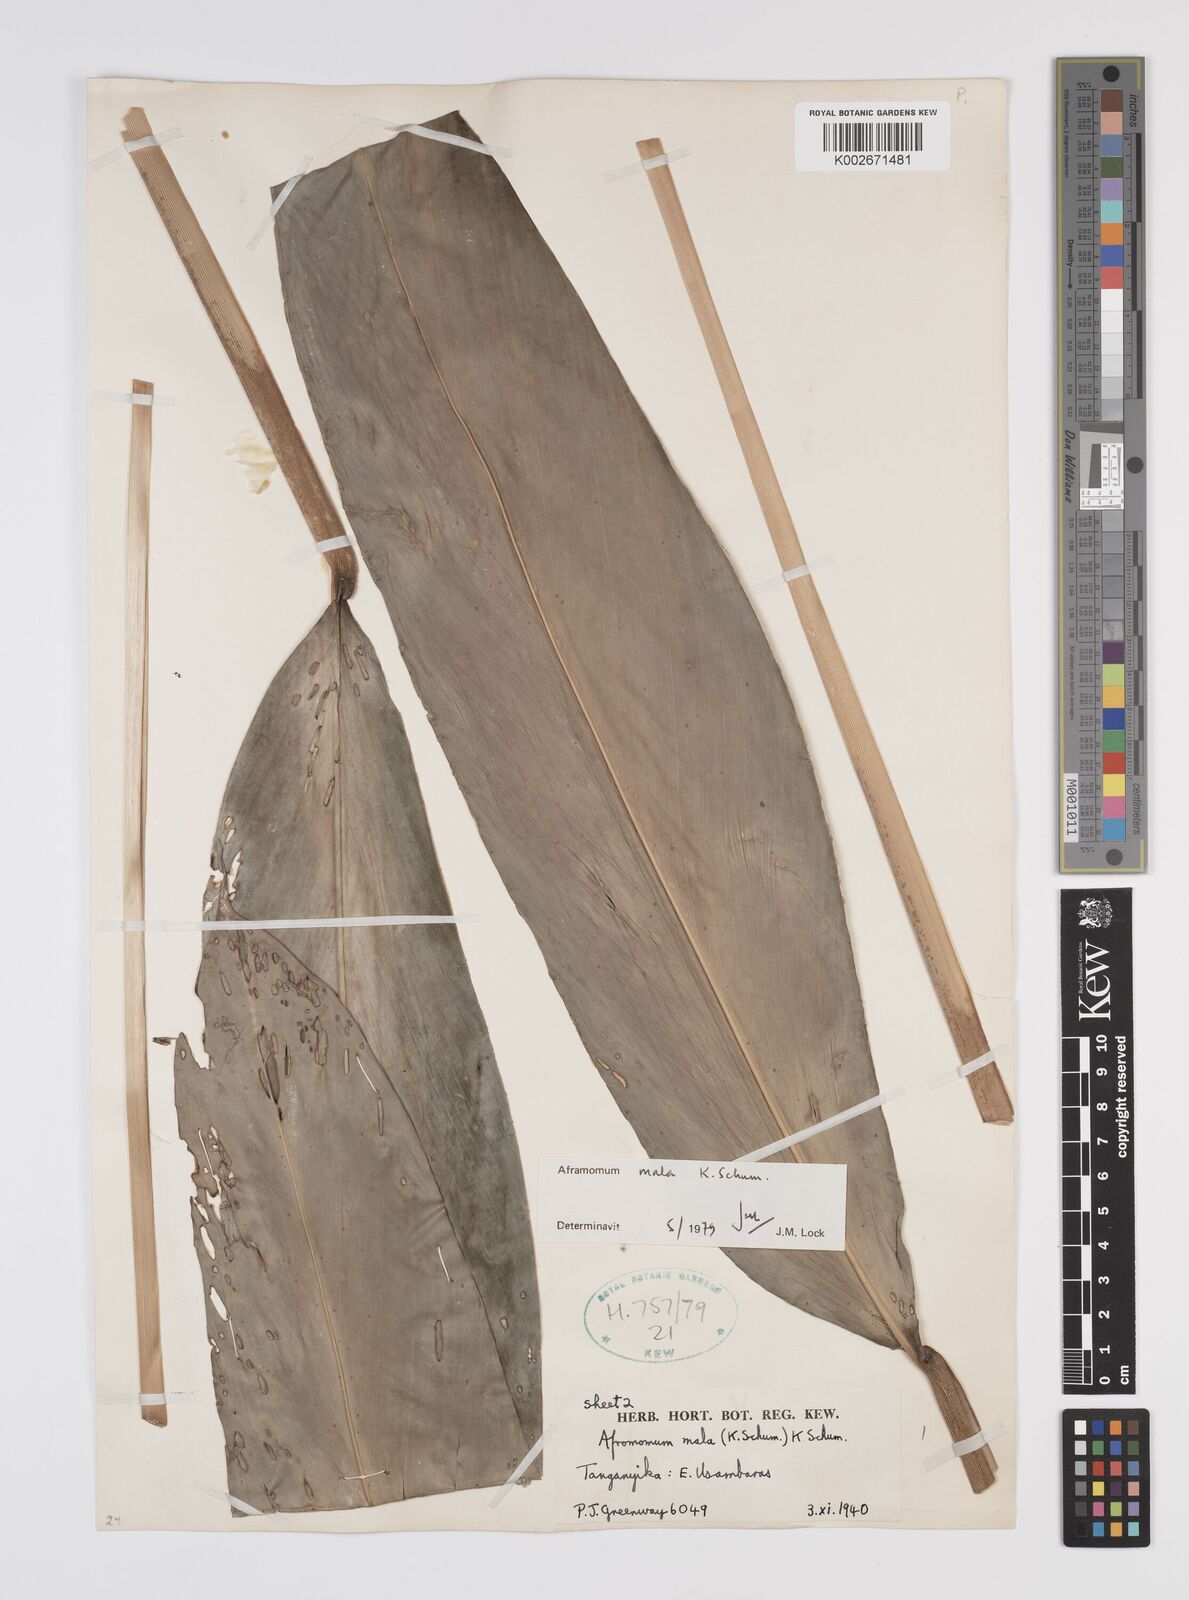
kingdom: Plantae
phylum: Tracheophyta
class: Liliopsida
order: Zingiberales
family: Zingiberaceae
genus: Aframomum
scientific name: Aframomum mala
